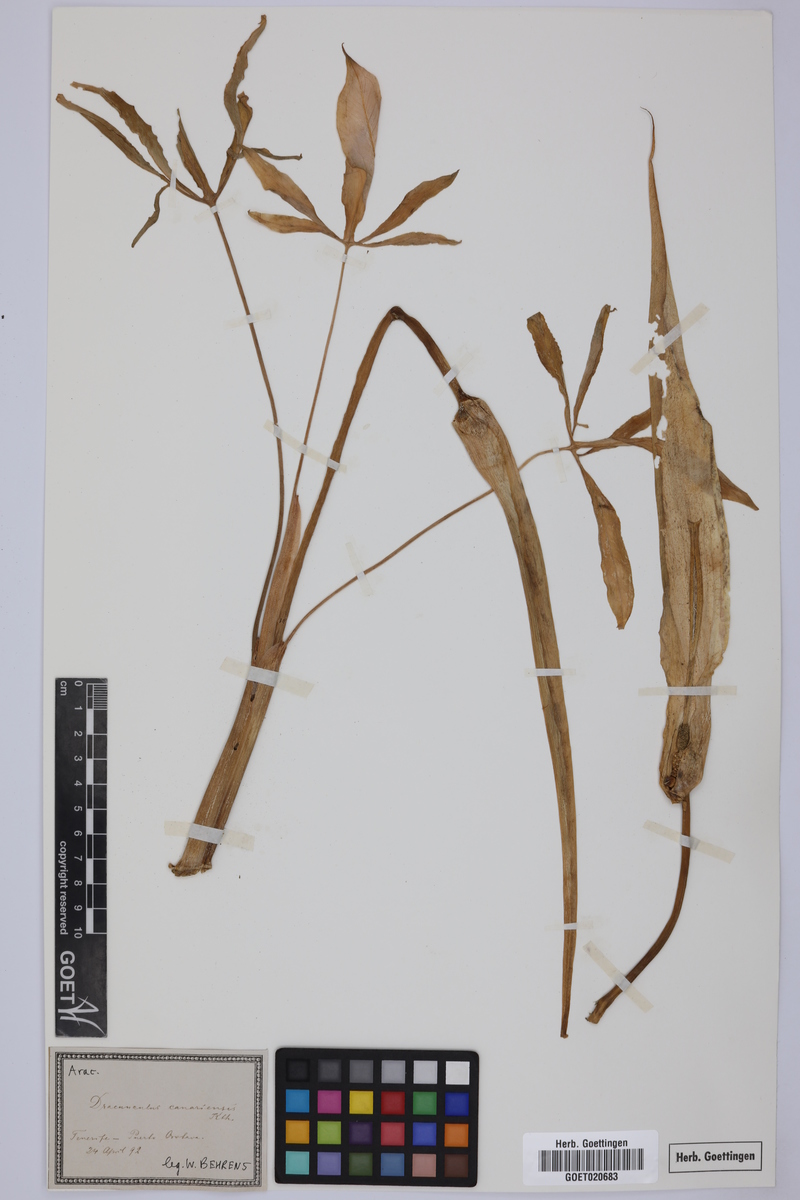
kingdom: Plantae
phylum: Tracheophyta
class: Liliopsida
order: Alismatales
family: Araceae
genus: Dracunculus
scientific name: Dracunculus canariensis
